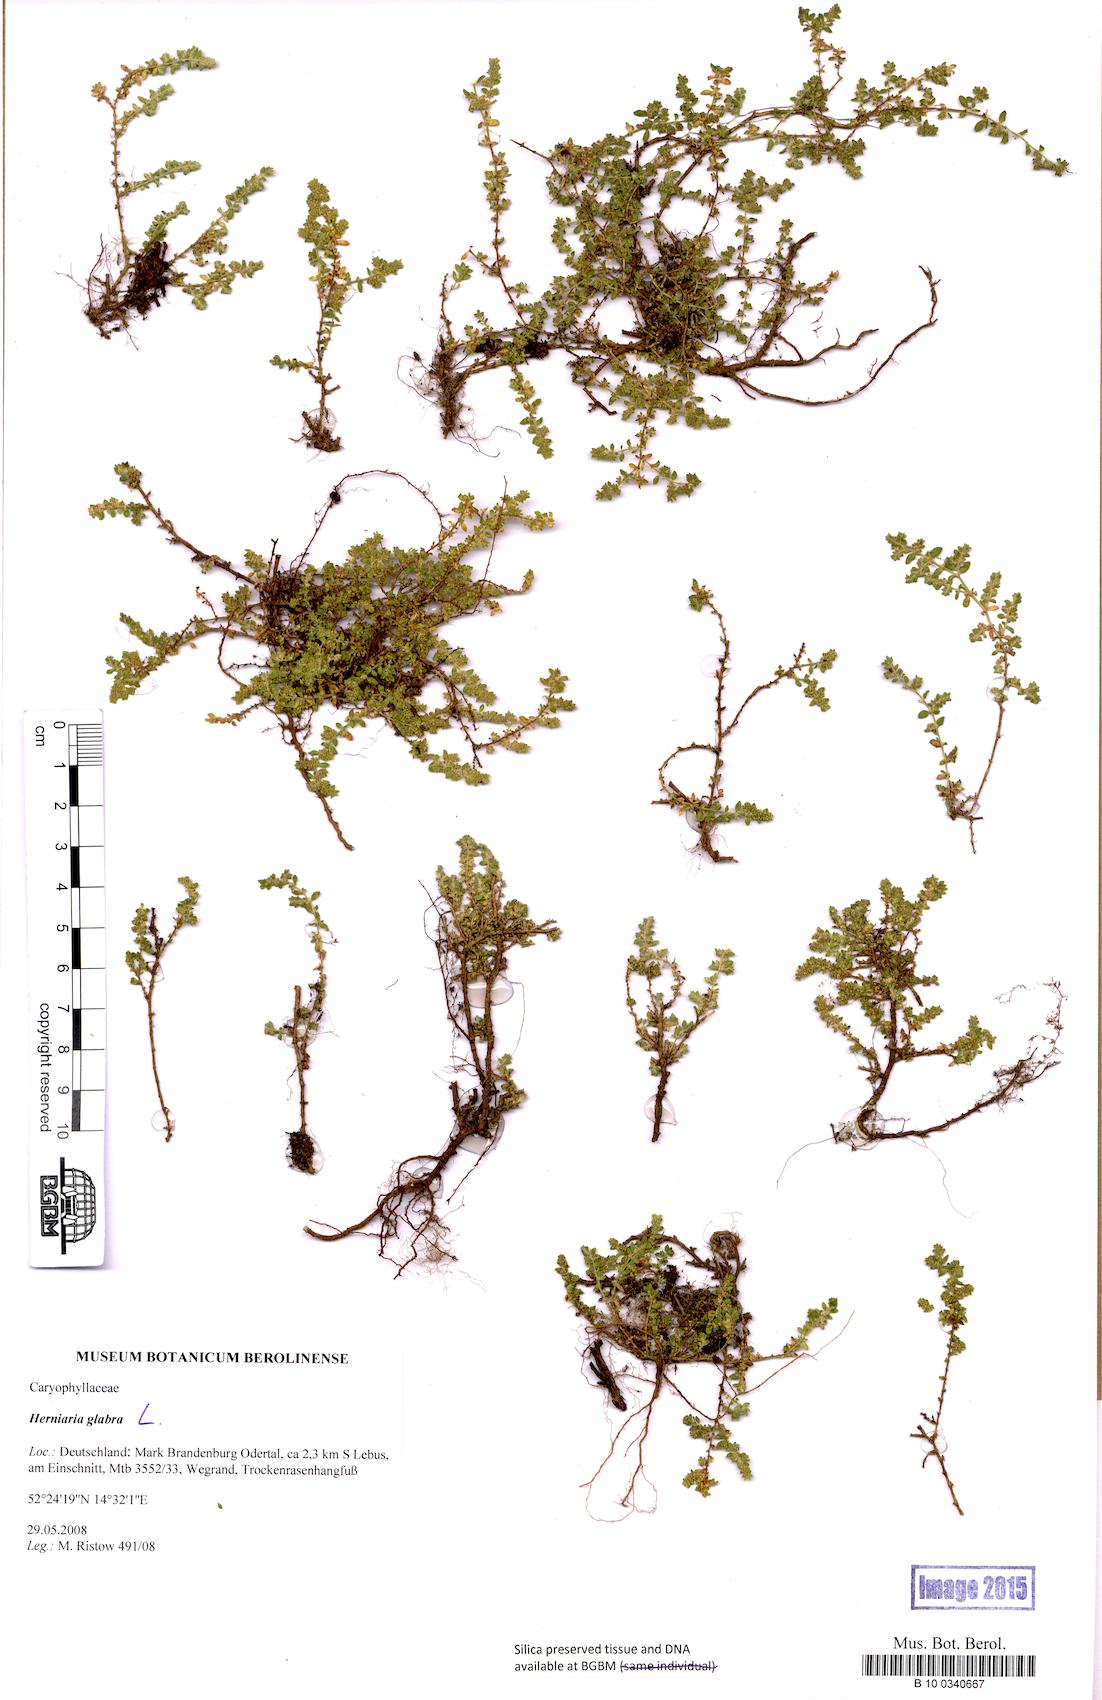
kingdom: Plantae
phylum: Tracheophyta
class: Magnoliopsida
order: Caryophyllales
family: Caryophyllaceae
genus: Herniaria
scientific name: Herniaria glabra
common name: Smooth rupturewort
